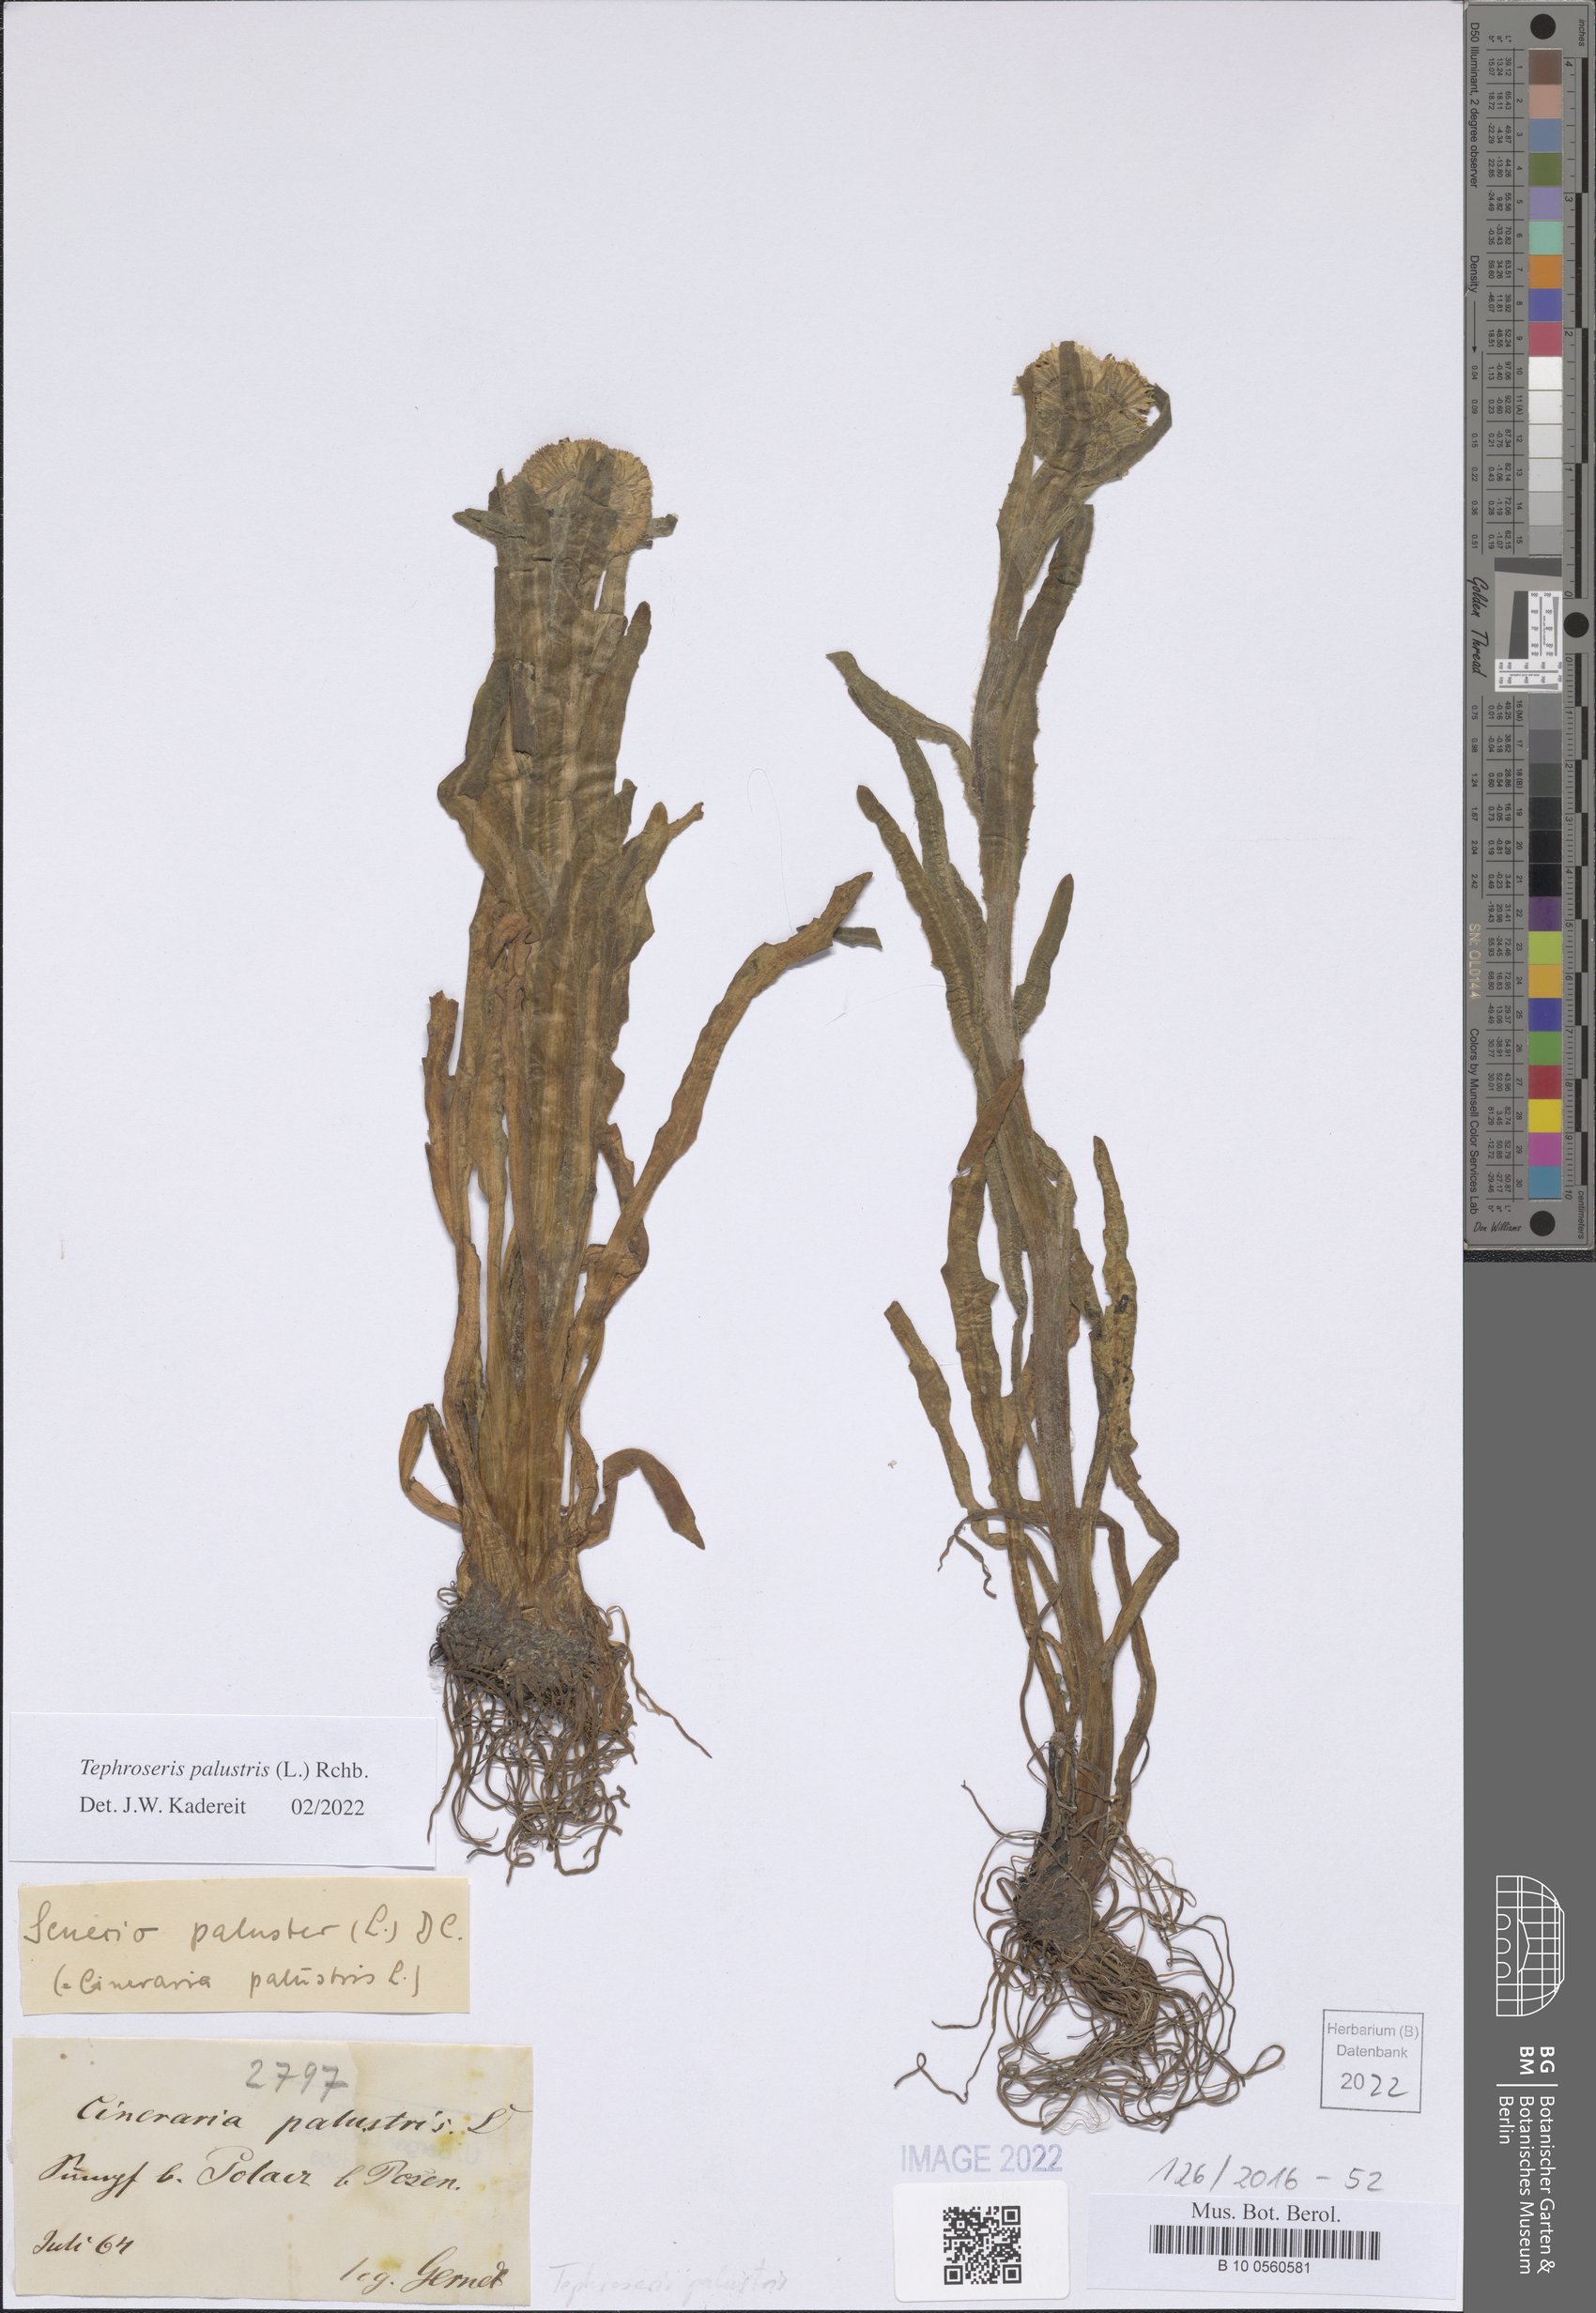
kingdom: Plantae
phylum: Tracheophyta
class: Magnoliopsida
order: Asterales
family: Asteraceae
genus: Tephroseris
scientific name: Tephroseris palustris
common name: Marsh fleawort
